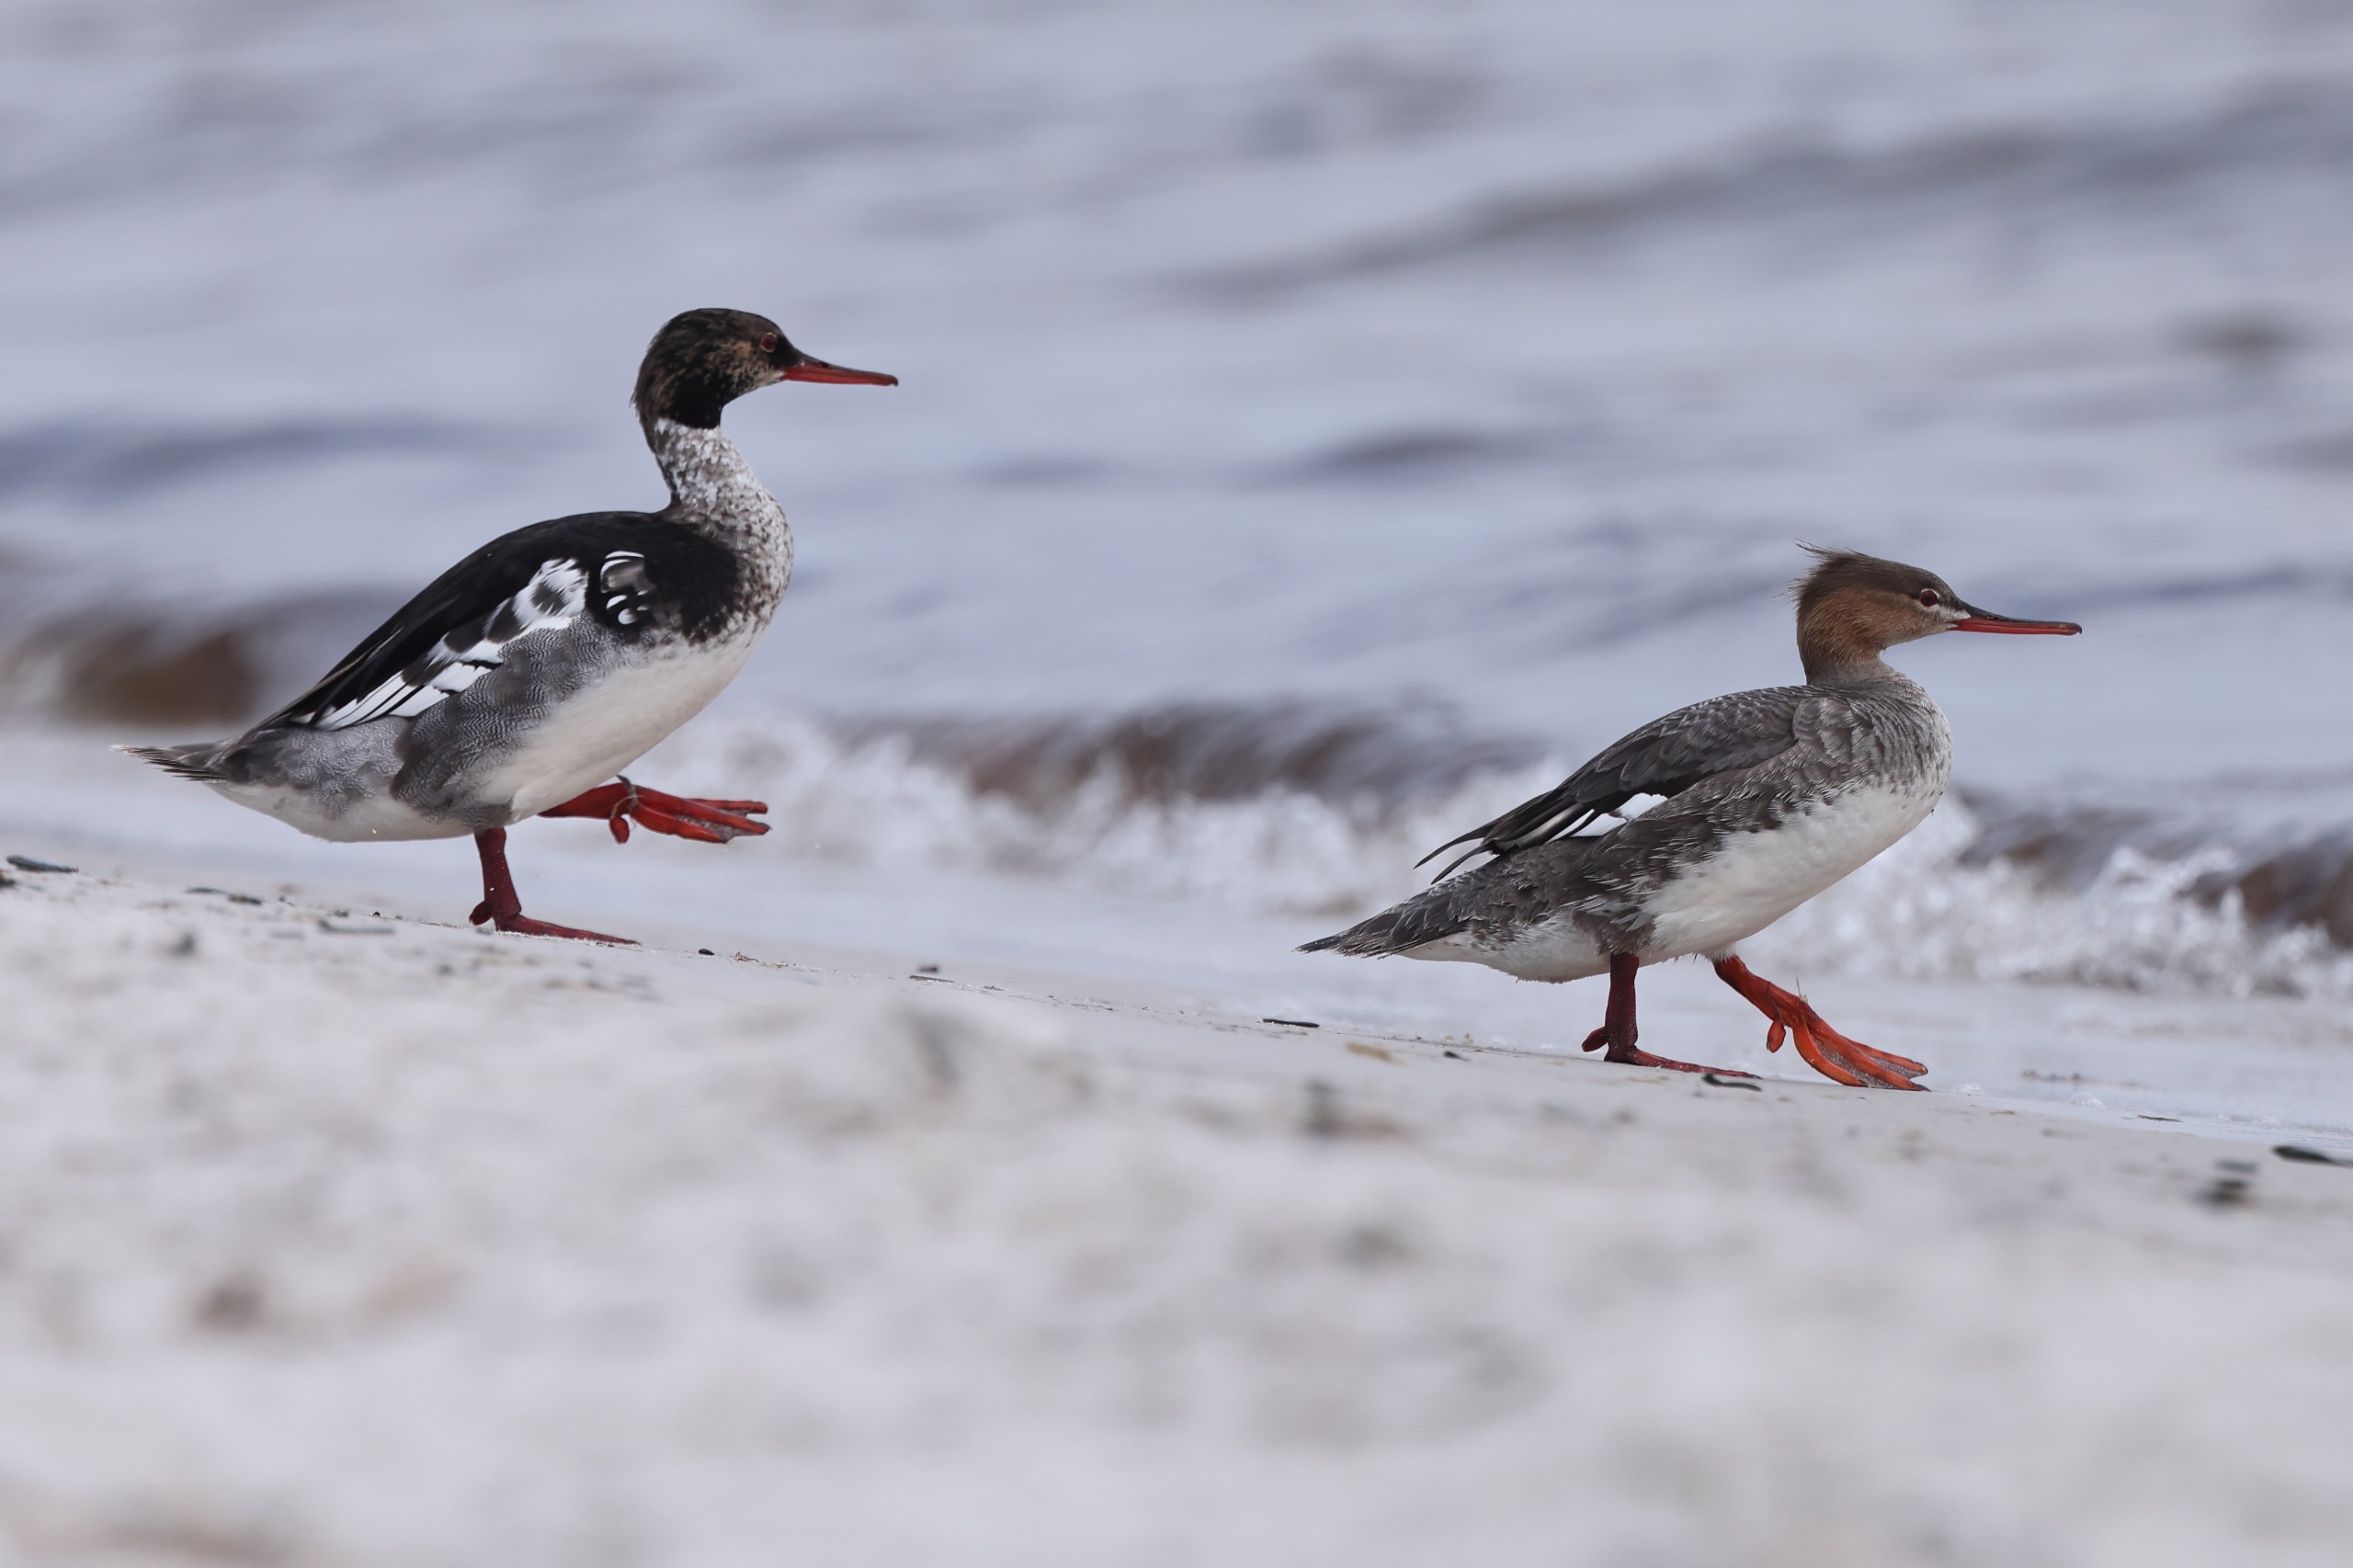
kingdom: Animalia
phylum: Chordata
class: Aves
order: Anseriformes
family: Anatidae
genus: Mergus
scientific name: Mergus serrator
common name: Toppet skallesluger
